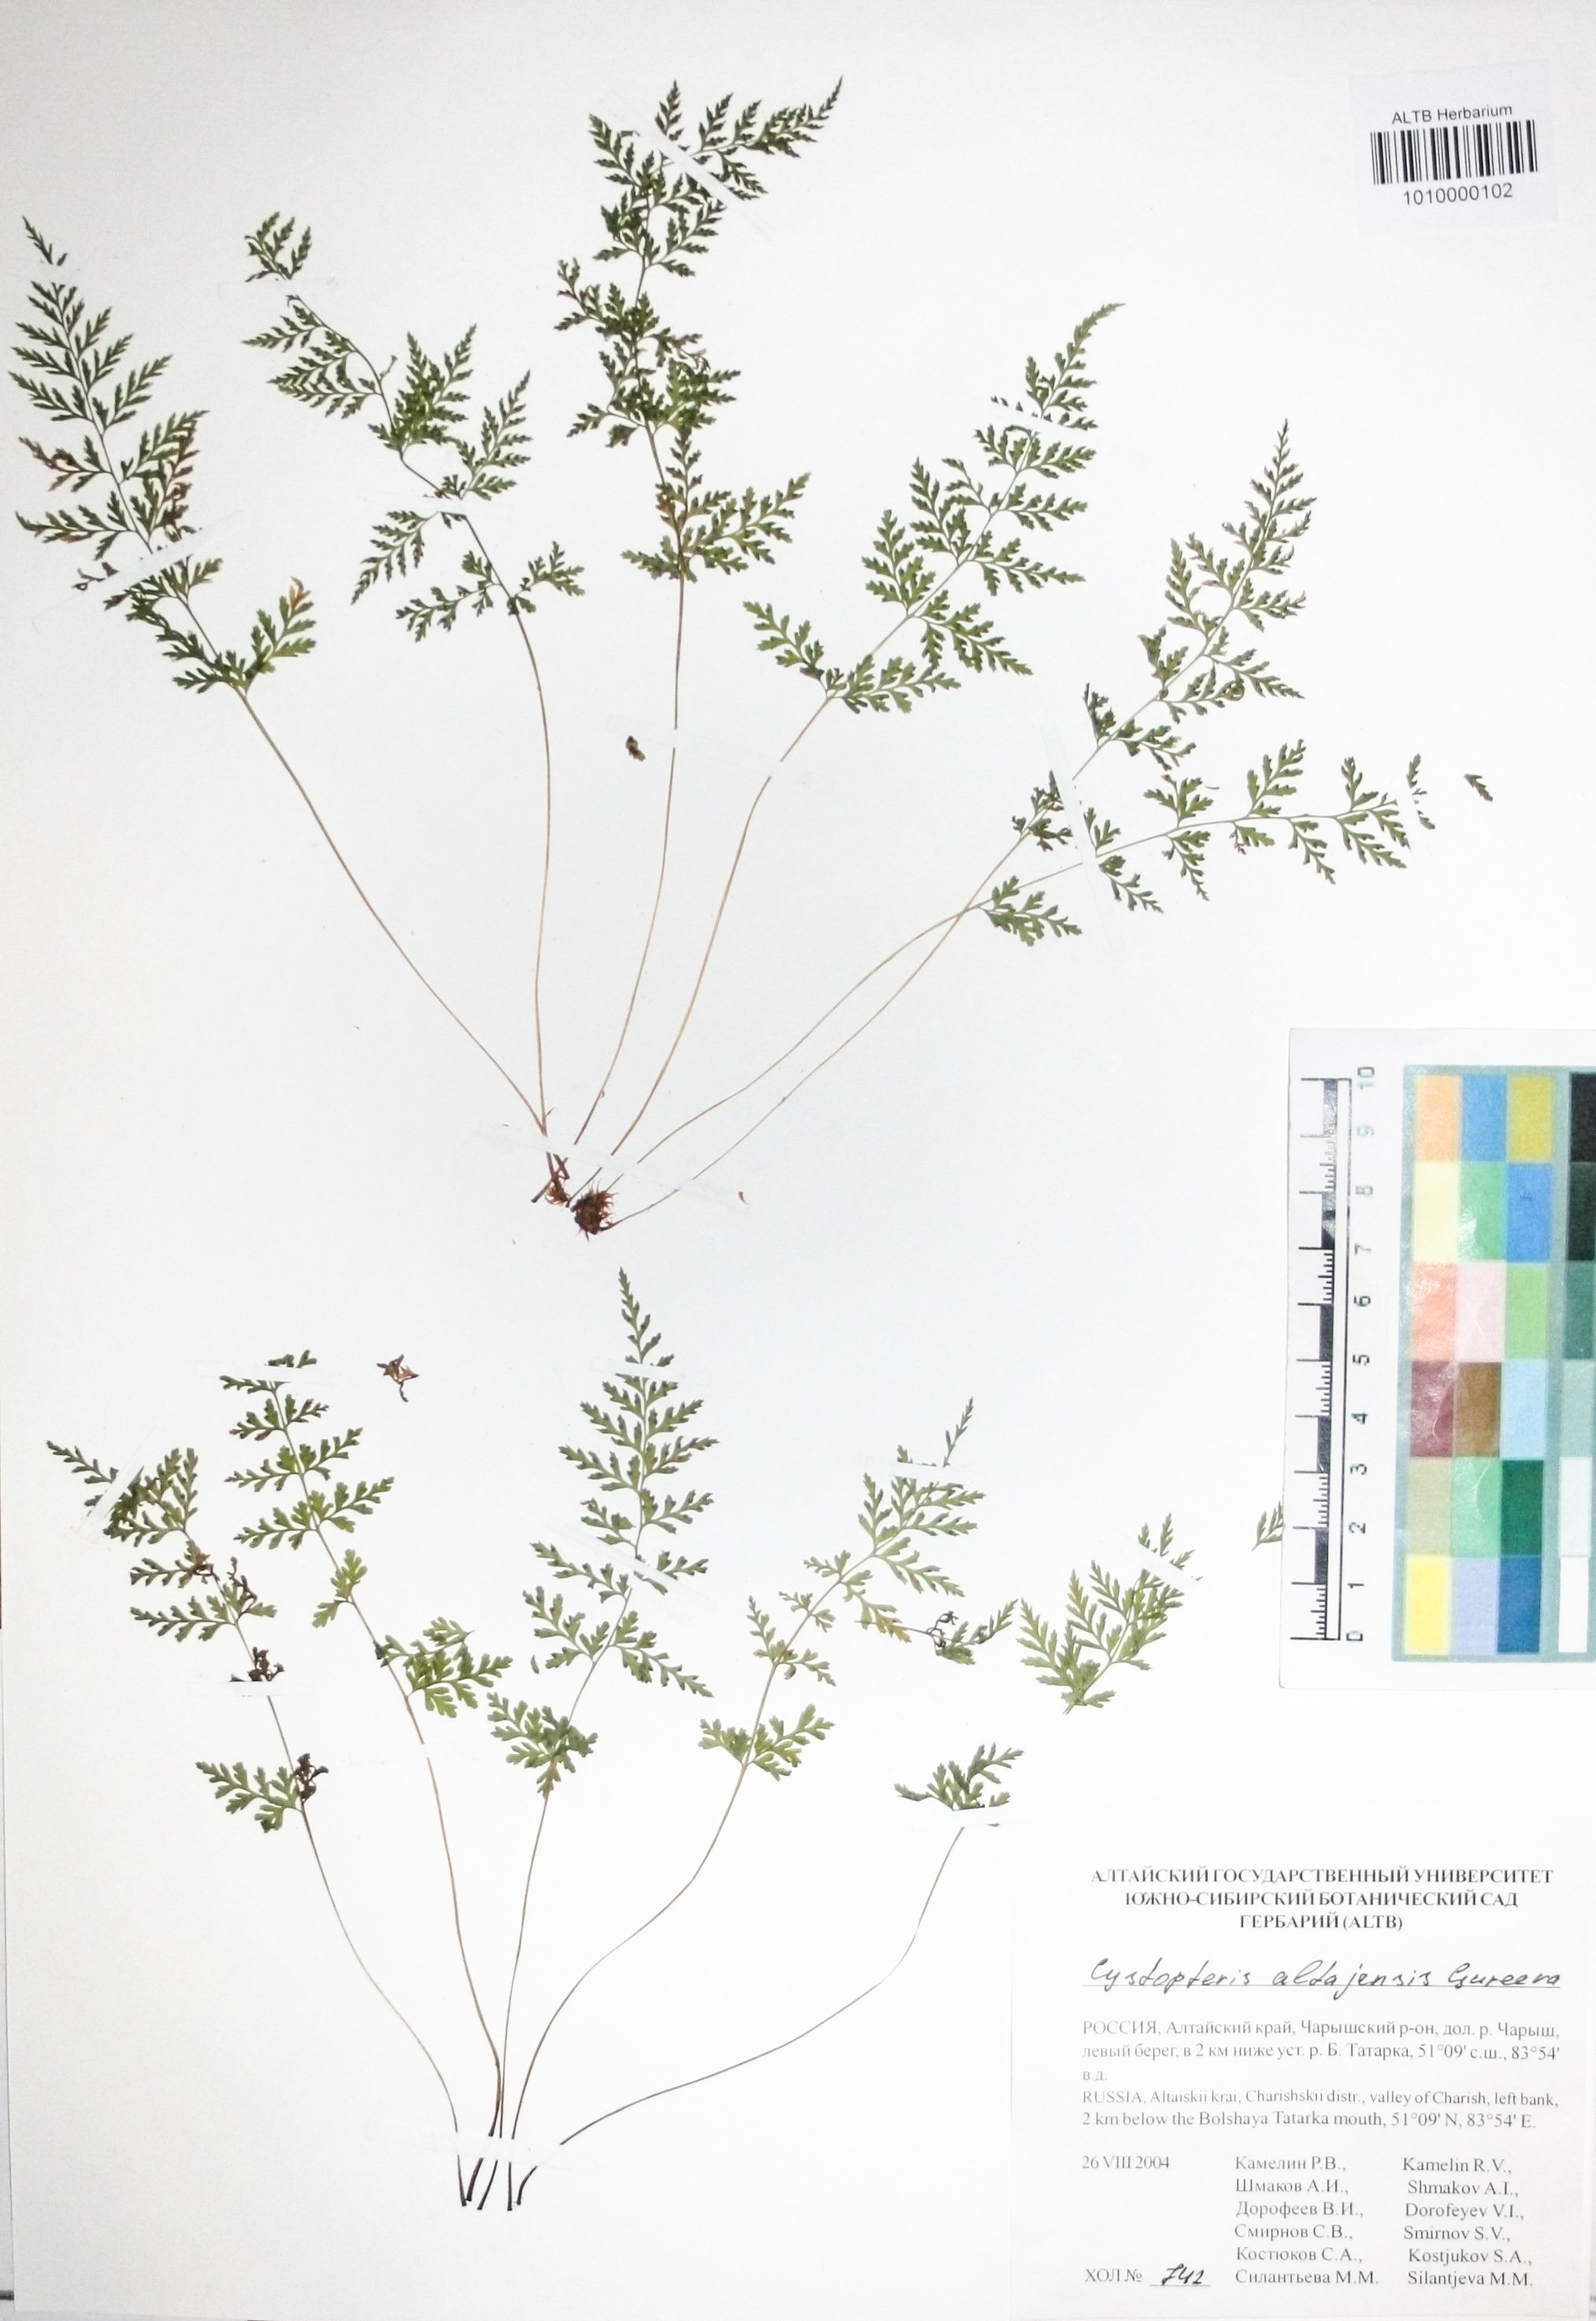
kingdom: Plantae
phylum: Tracheophyta
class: Polypodiopsida
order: Polypodiales
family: Cystopteridaceae
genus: Cystopteris
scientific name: Cystopteris diaphana
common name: Greenish bladder-fern
